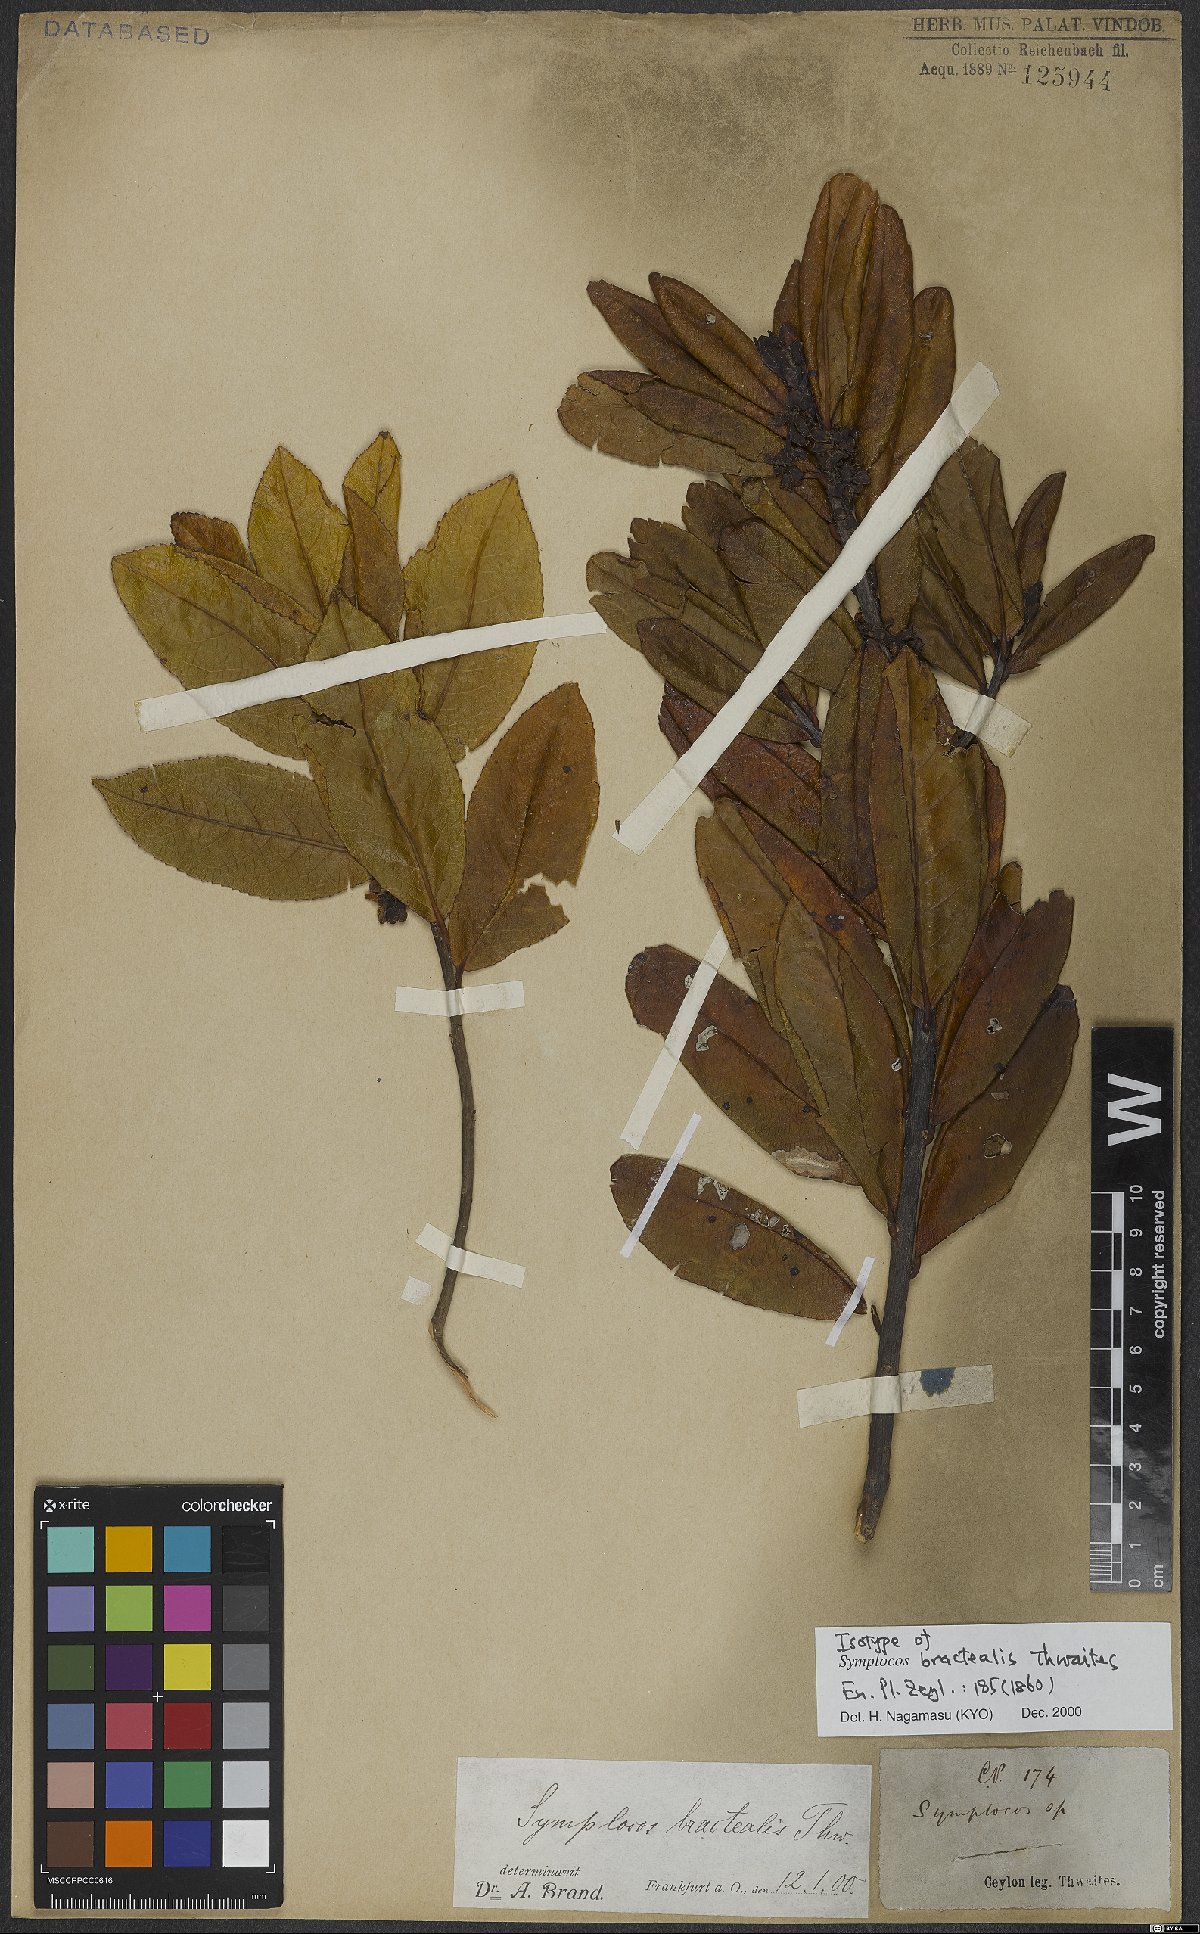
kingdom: Plantae
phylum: Tracheophyta
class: Magnoliopsida
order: Ericales
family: Symplocaceae
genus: Symplocos
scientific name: Symplocos bractealis
